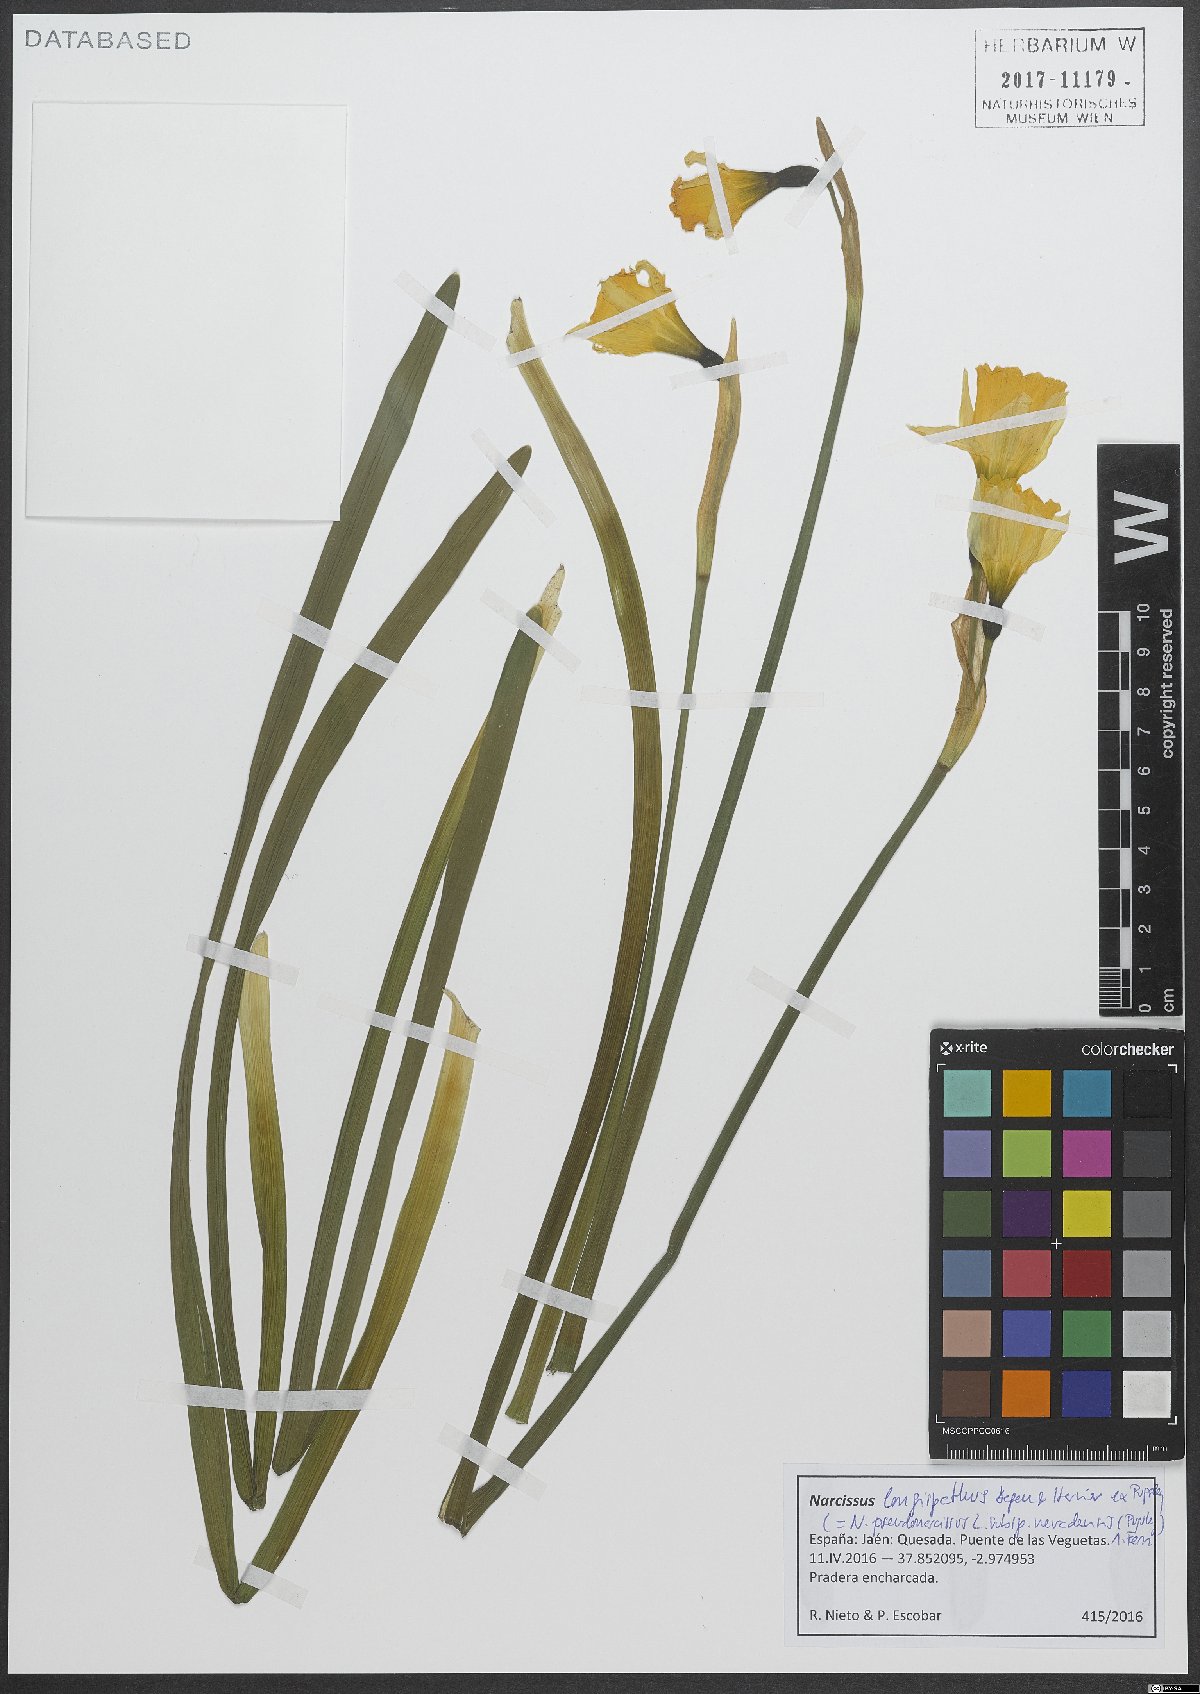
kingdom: Plantae
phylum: Tracheophyta
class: Liliopsida
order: Asparagales
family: Amaryllidaceae
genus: Narcissus
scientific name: Narcissus nevadensis
